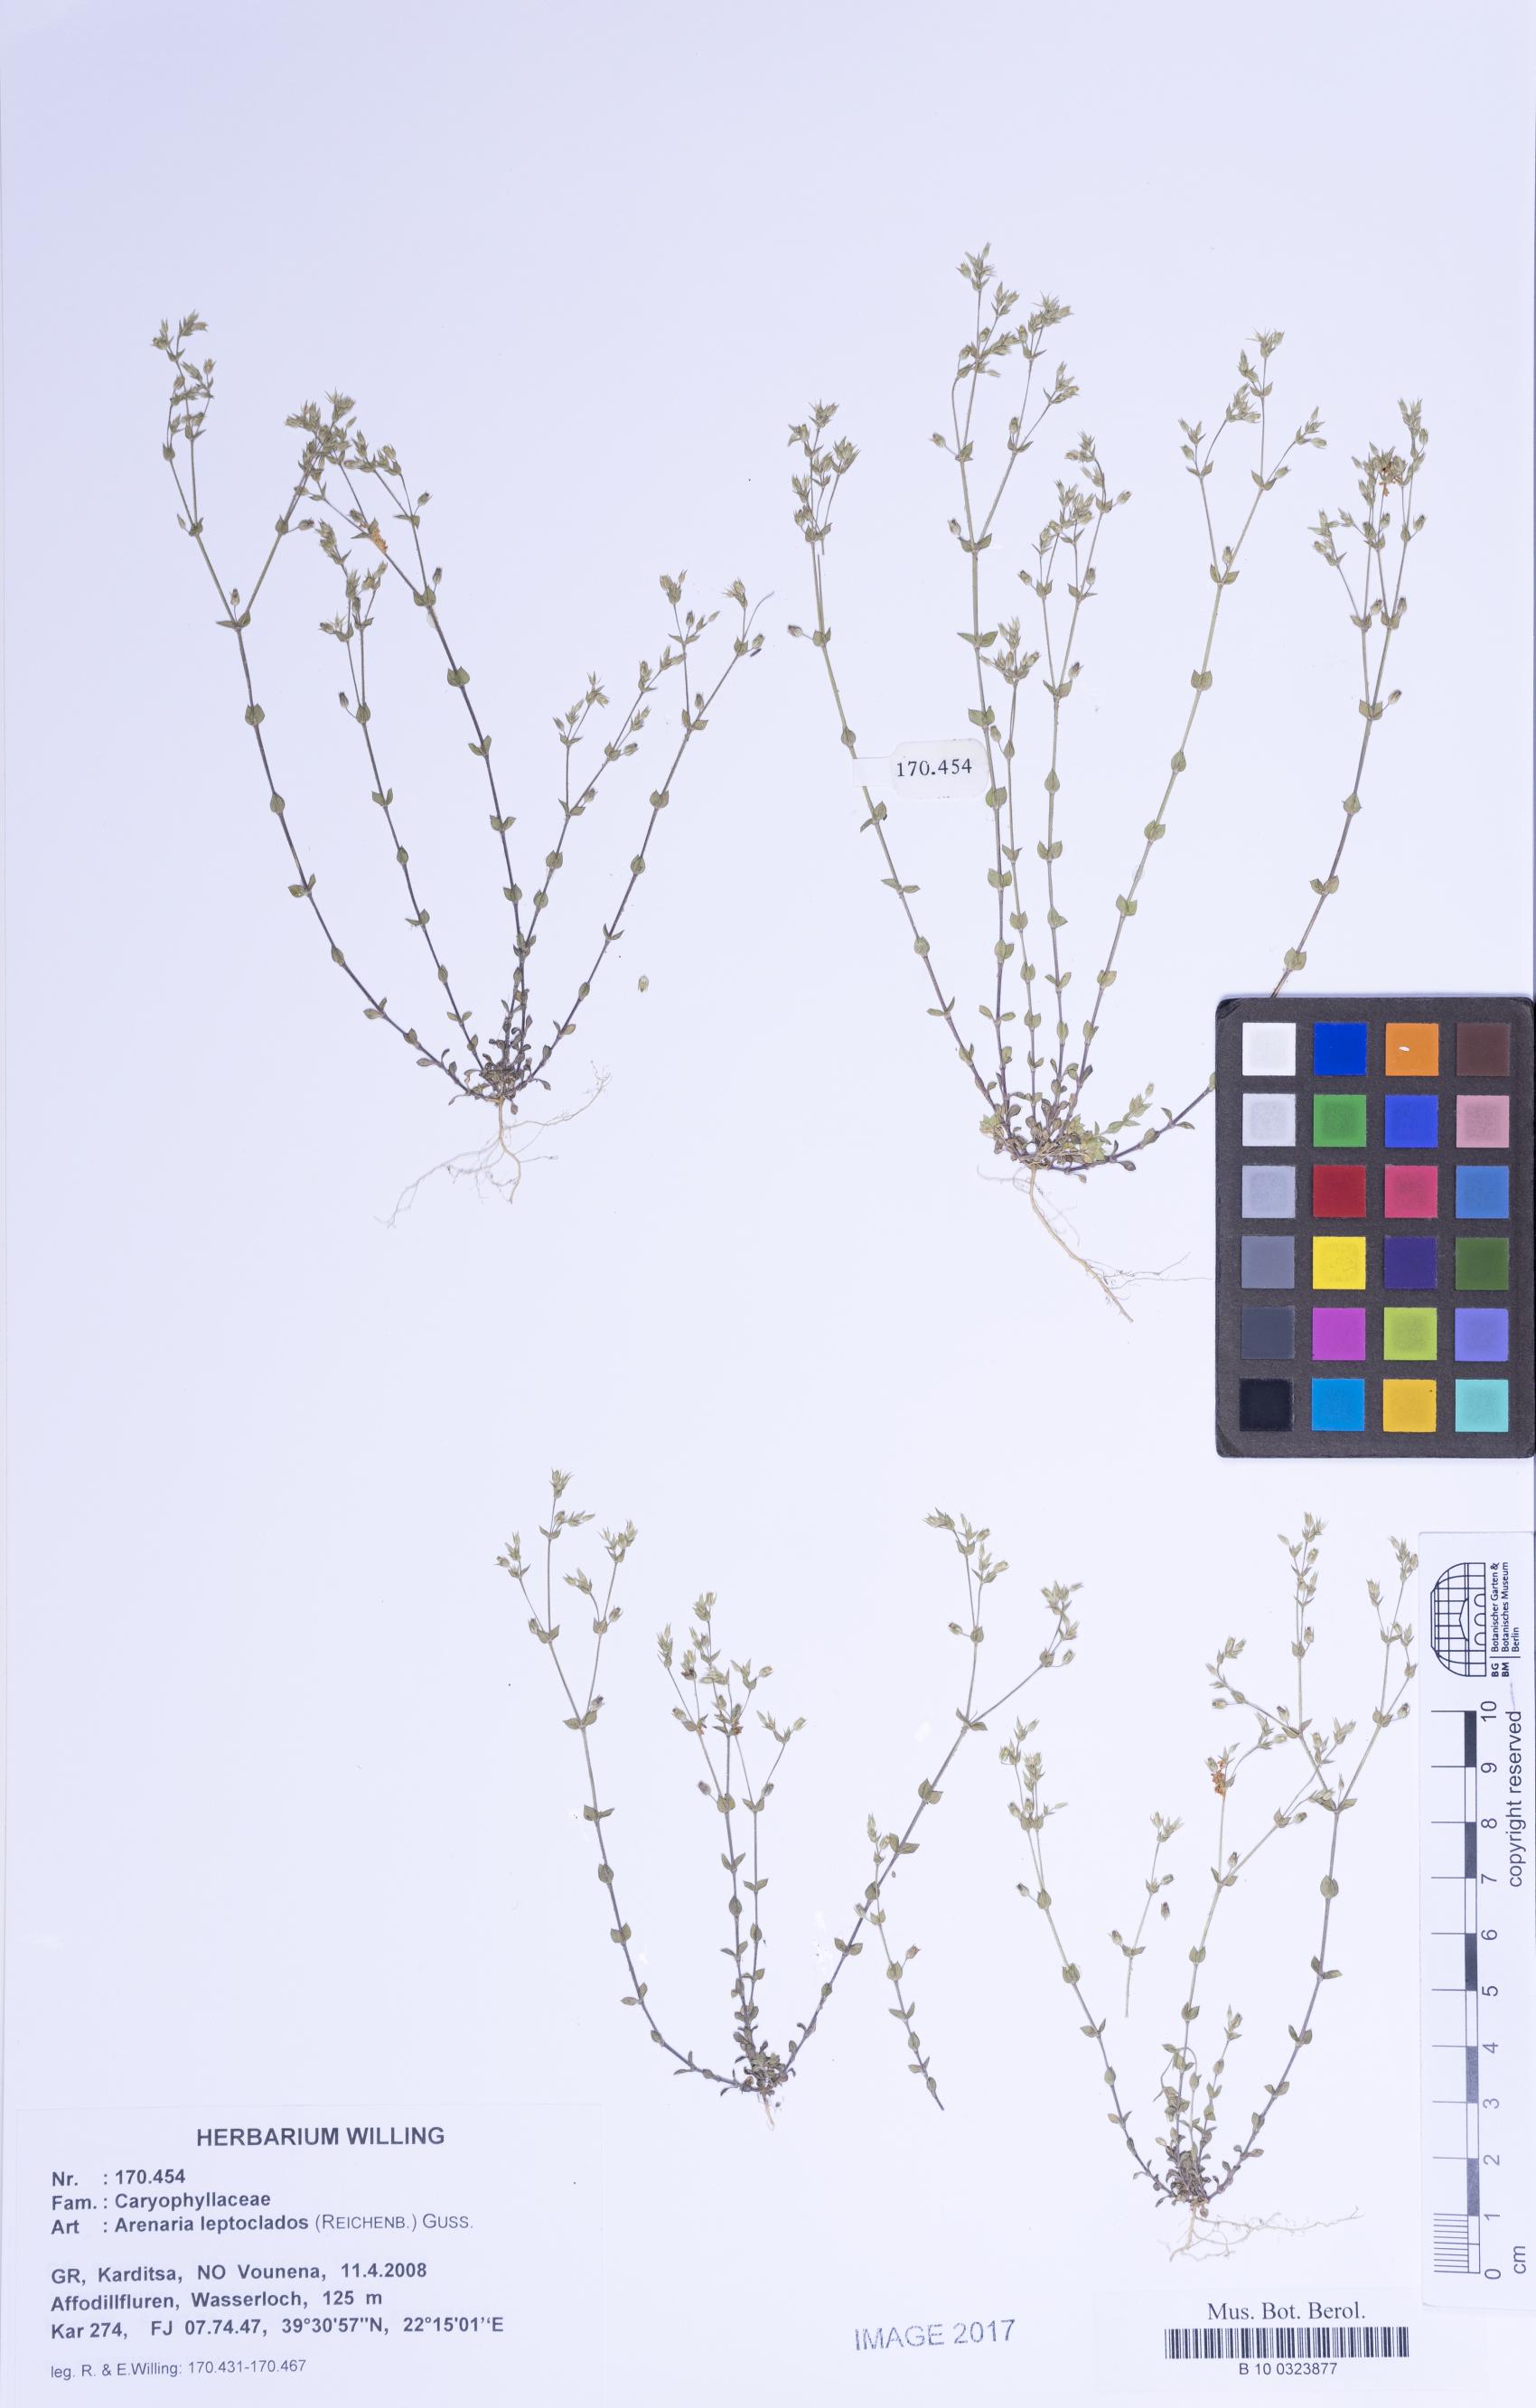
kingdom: Plantae
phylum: Tracheophyta
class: Magnoliopsida
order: Caryophyllales
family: Caryophyllaceae
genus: Arenaria
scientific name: Arenaria leptoclados
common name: Thyme-leaved sandwort
